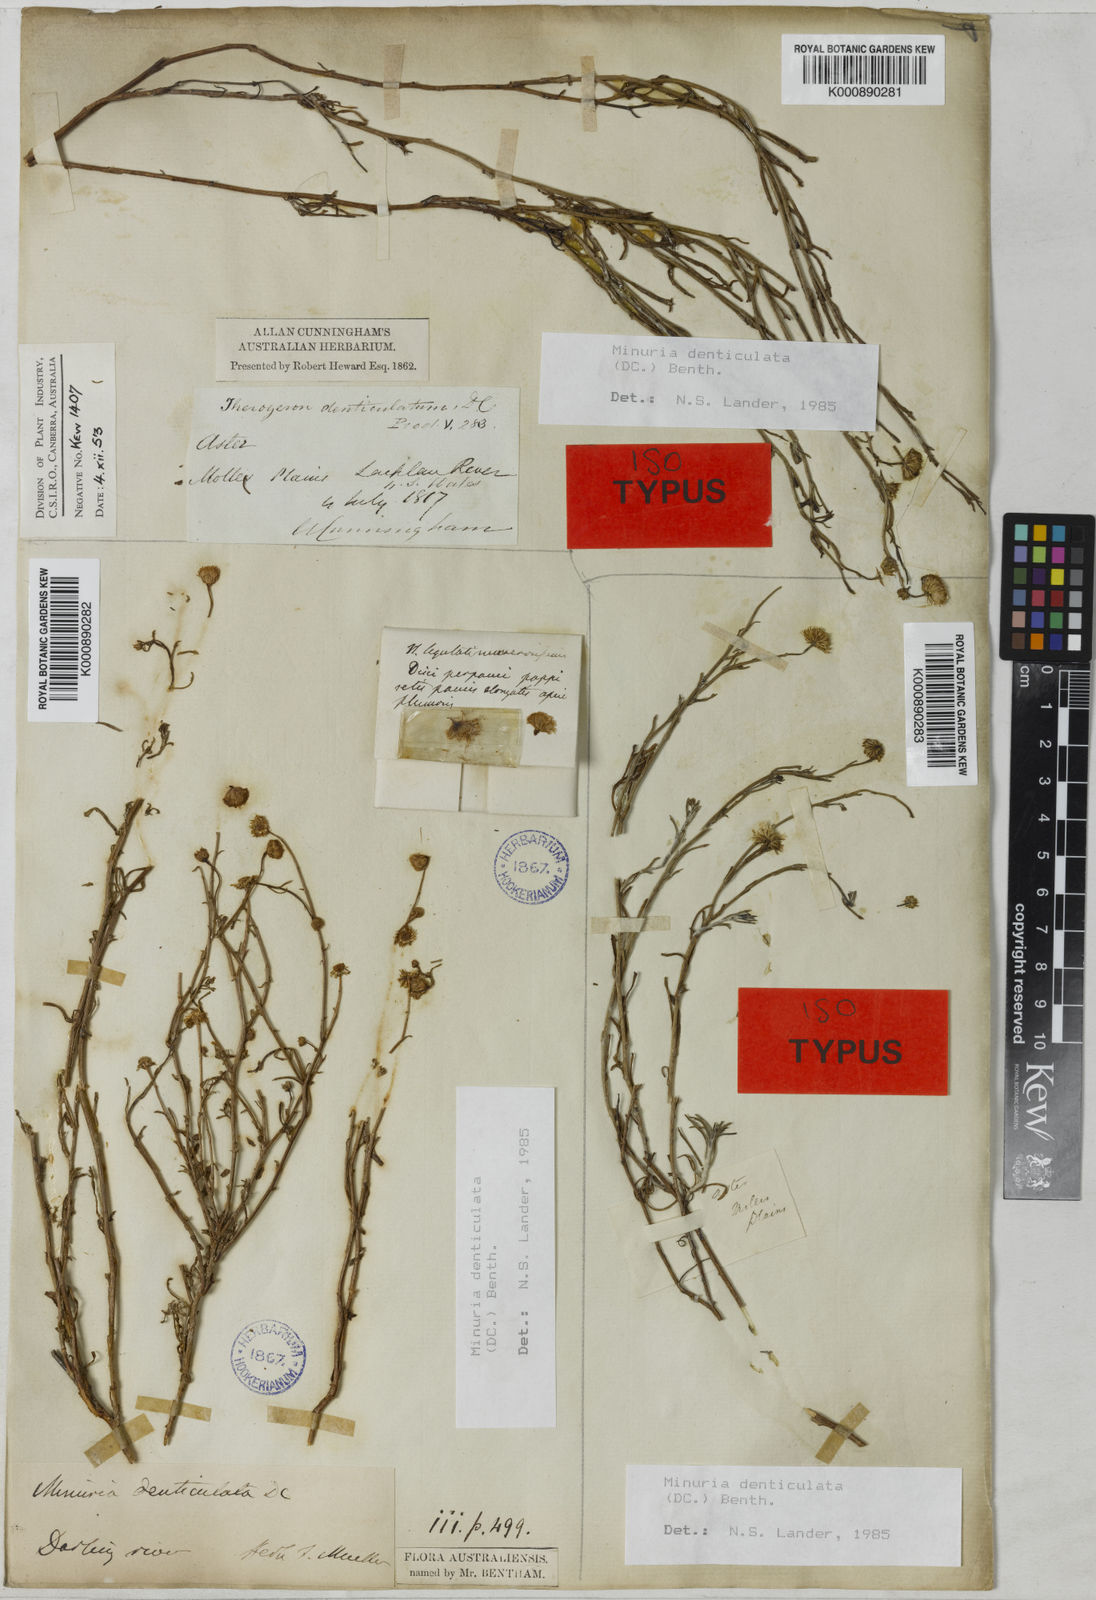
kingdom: Plantae
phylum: Tracheophyta
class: Magnoliopsida
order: Asterales
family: Asteraceae
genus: Minuria
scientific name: Minuria denticulata
